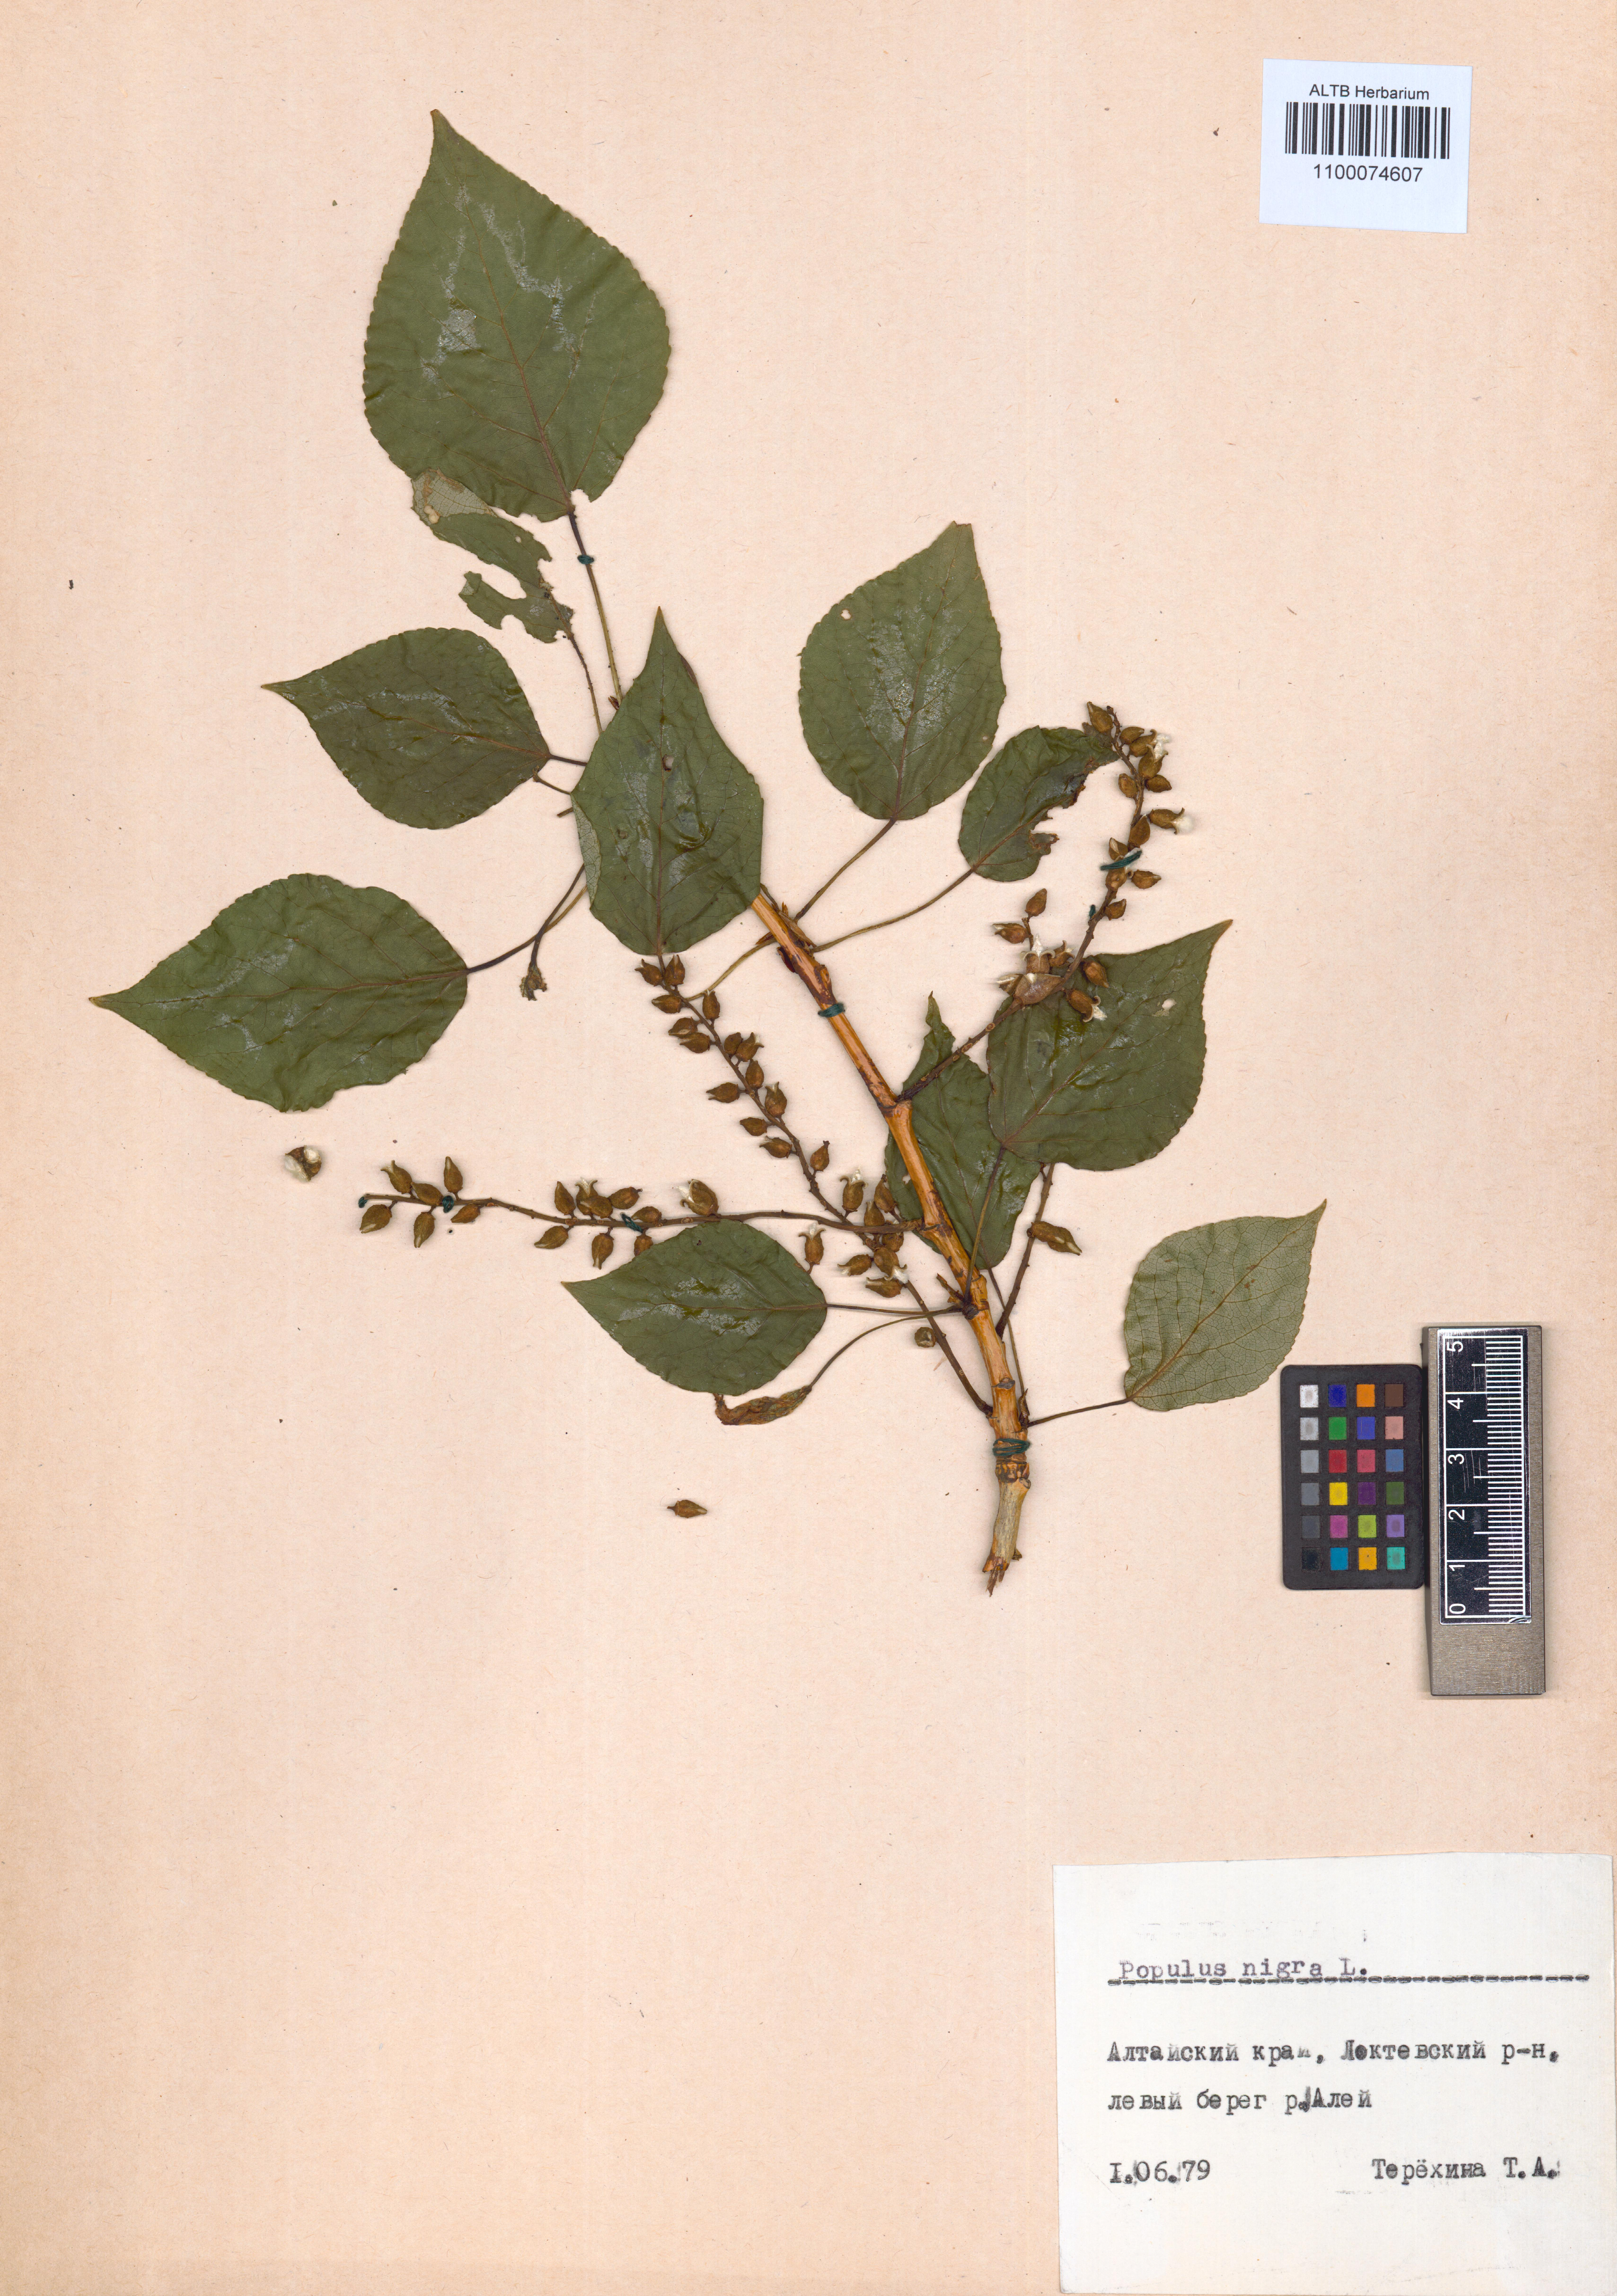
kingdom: Plantae
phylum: Tracheophyta
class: Magnoliopsida
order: Malpighiales
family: Salicaceae
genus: Populus
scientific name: Populus nigra
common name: Black poplar
